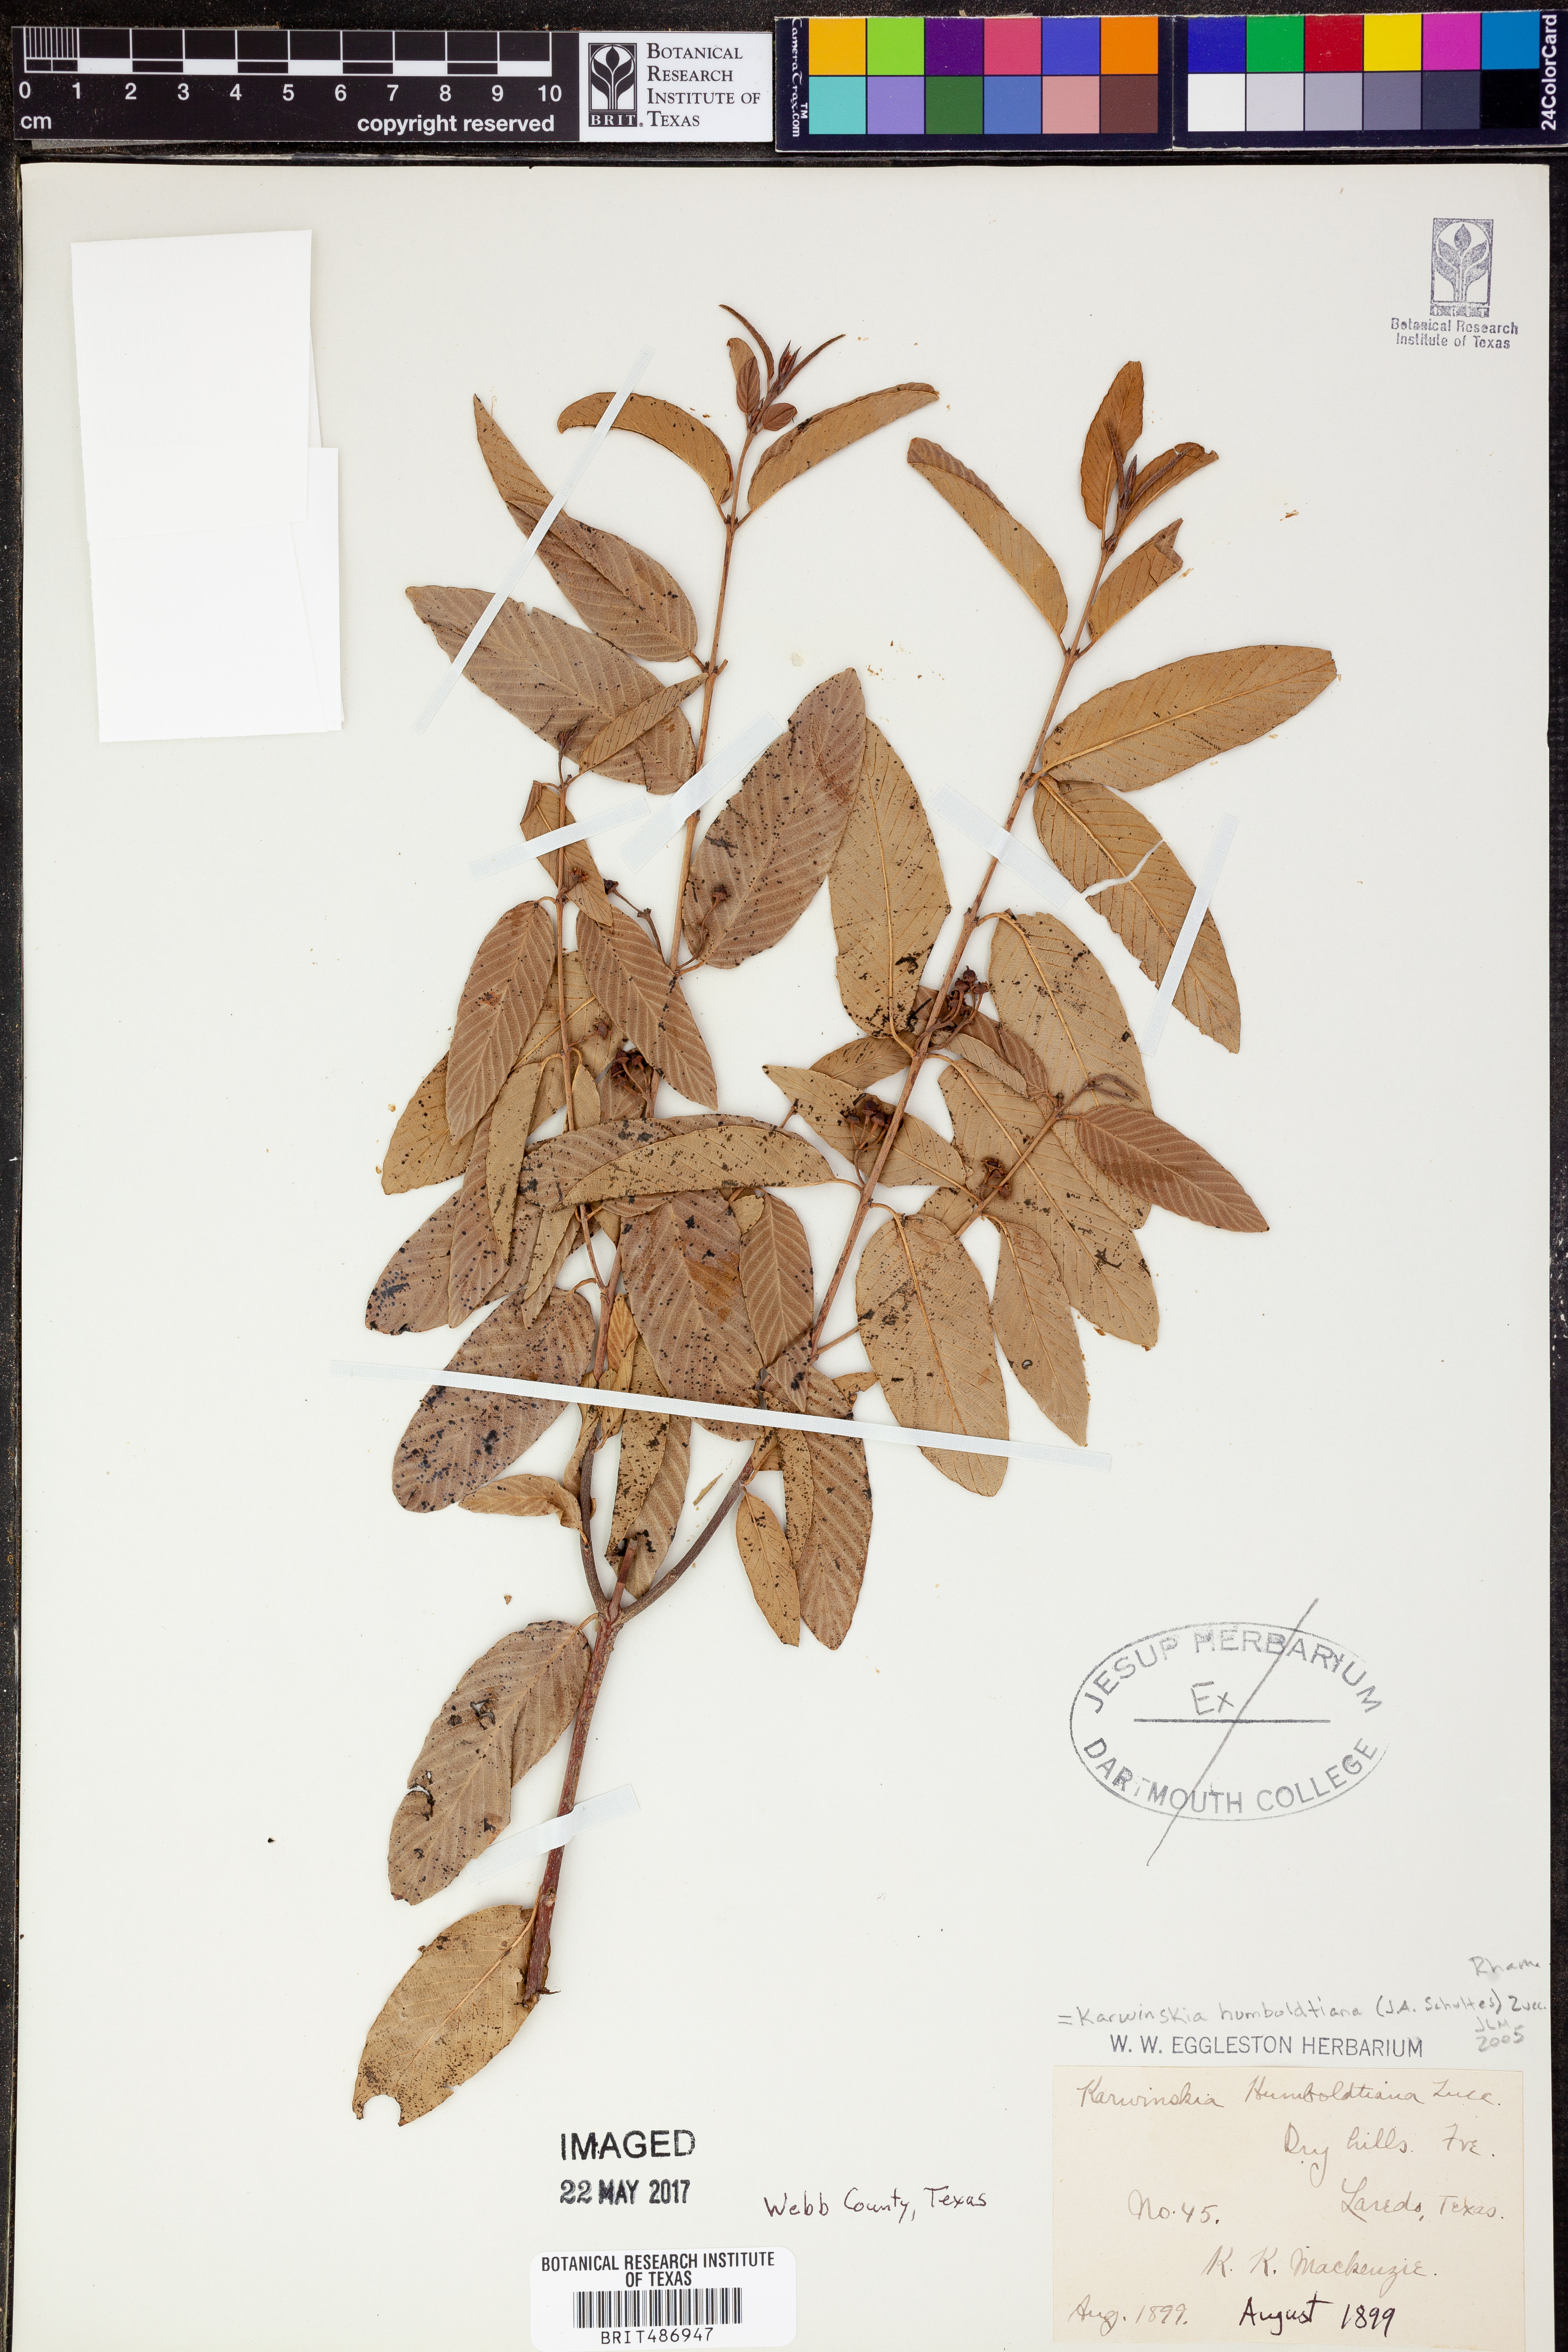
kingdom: Plantae
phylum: Tracheophyta
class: Magnoliopsida
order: Rosales
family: Rhamnaceae
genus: Karwinskia
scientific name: Karwinskia humboldtiana
